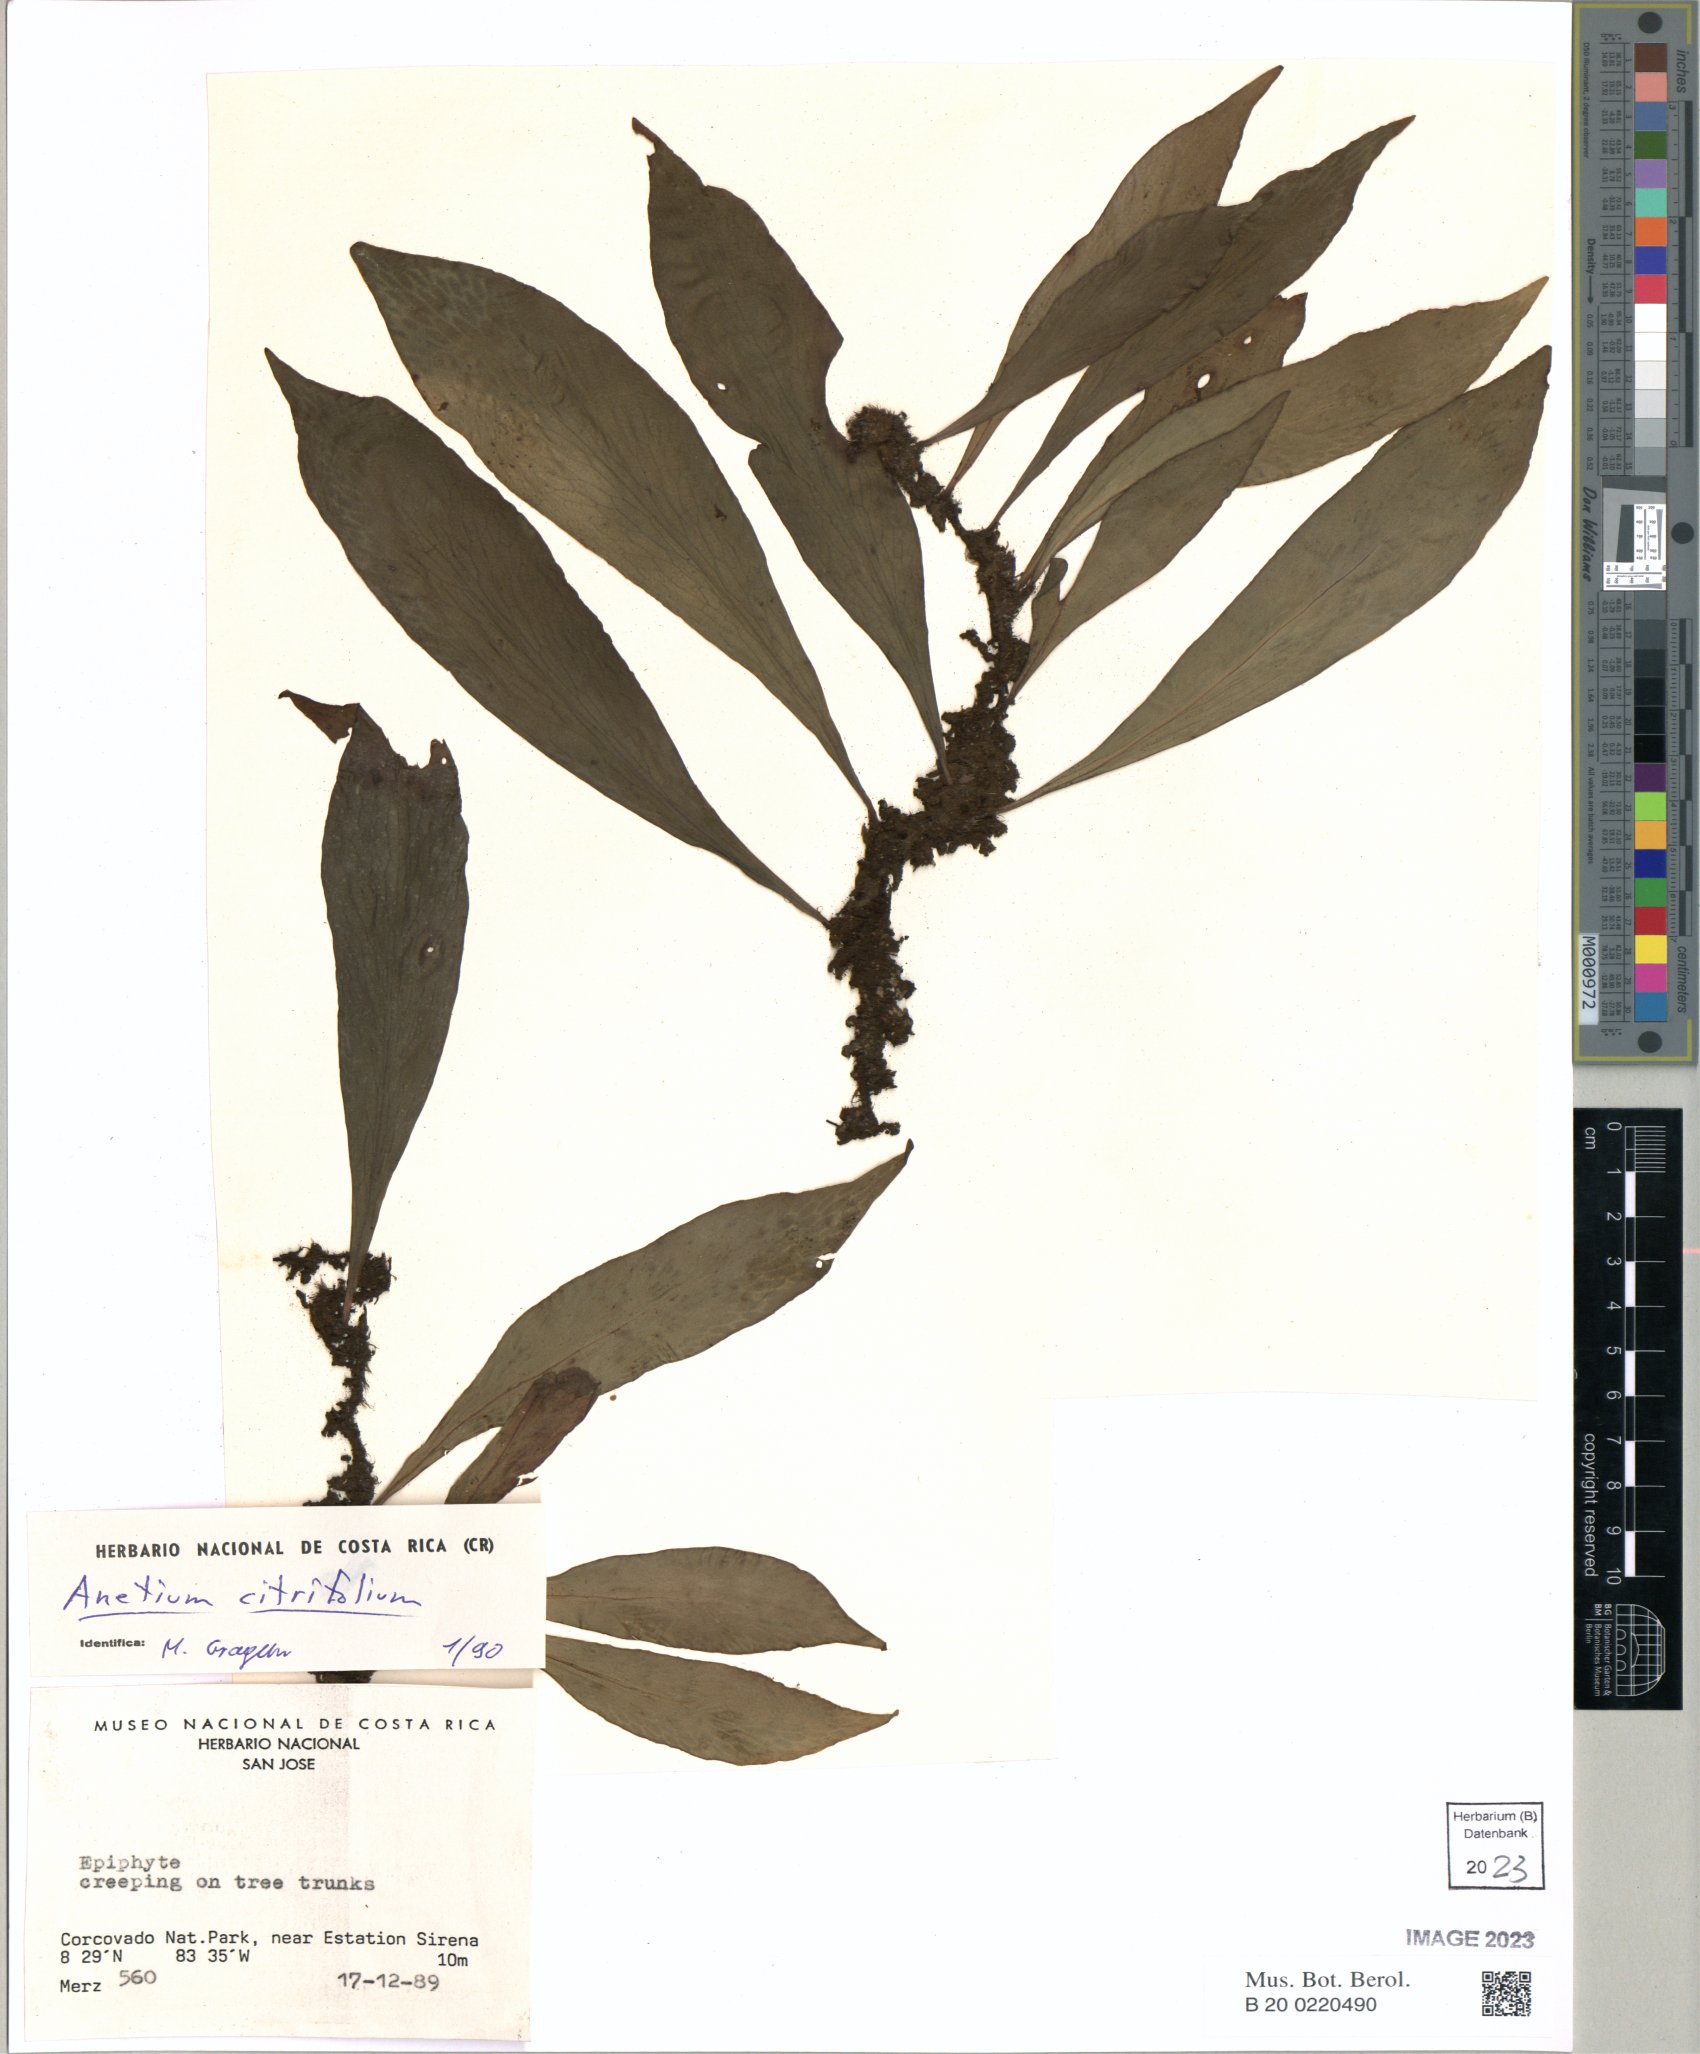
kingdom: Plantae
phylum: Tracheophyta
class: Polypodiopsida
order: Polypodiales
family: Pteridaceae
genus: Polytaenium
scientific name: Polytaenium citrifolium
